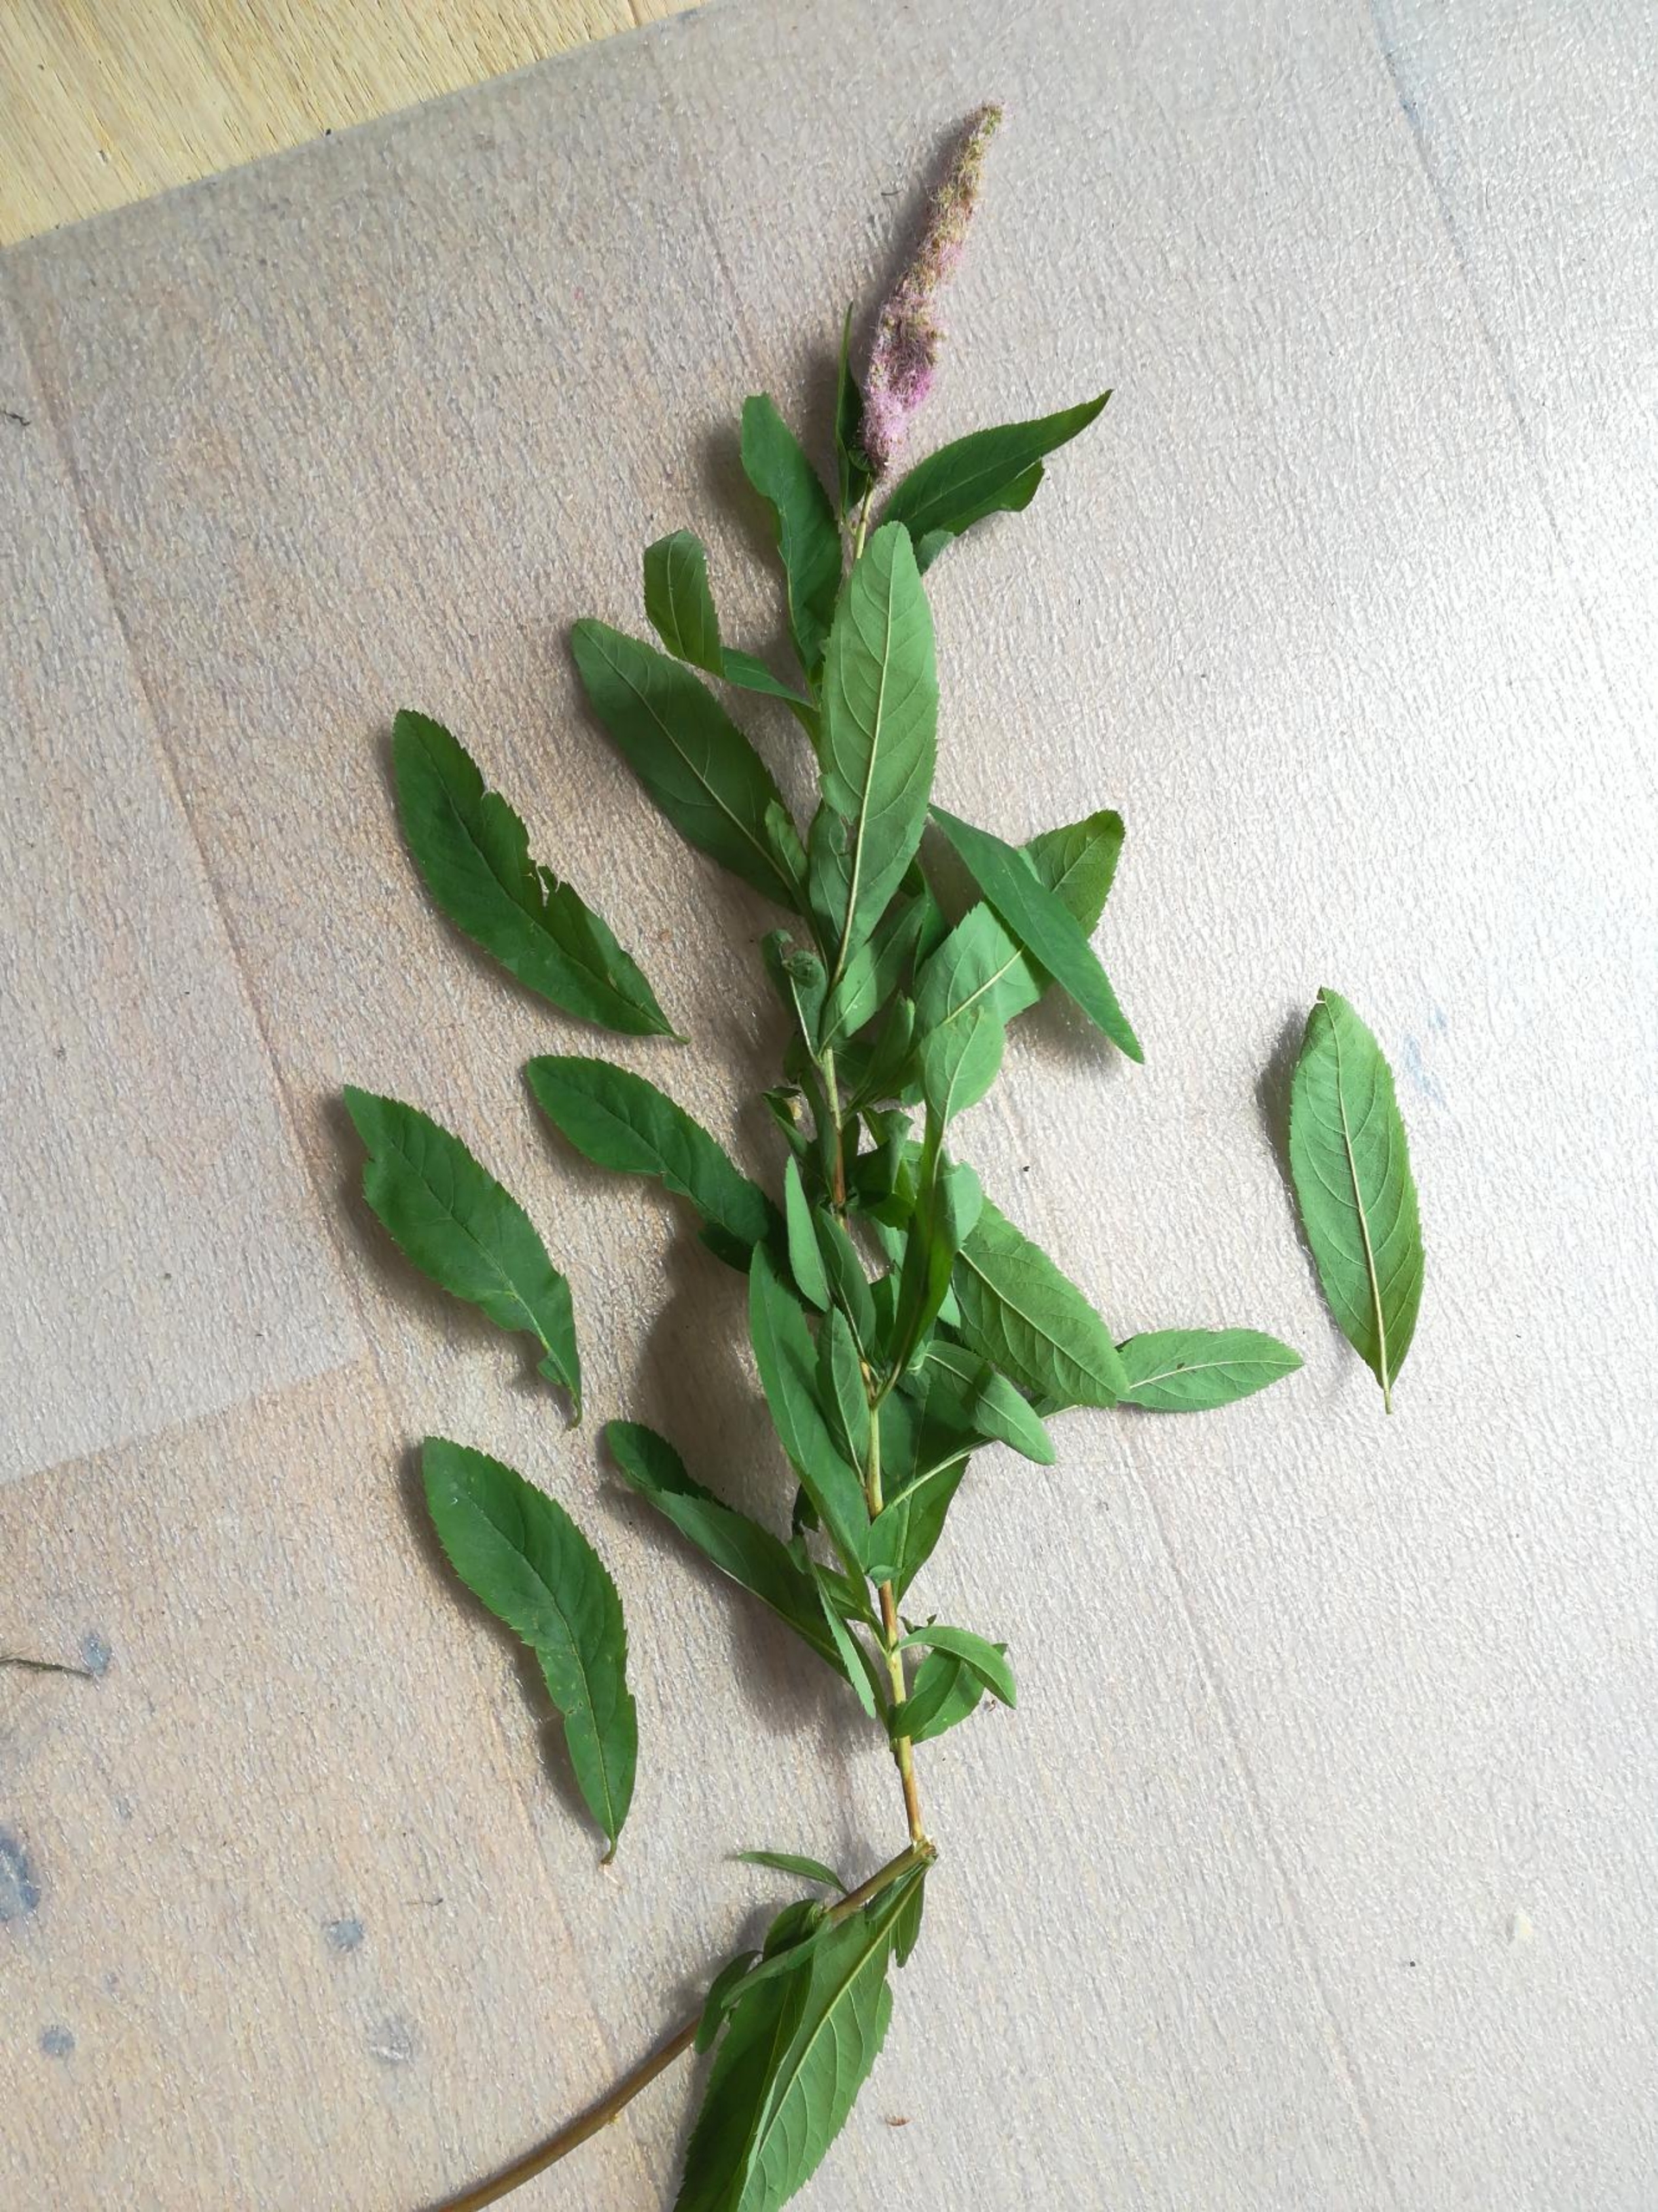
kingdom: Plantae
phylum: Tracheophyta
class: Magnoliopsida
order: Rosales
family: Rosaceae
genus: Spiraea
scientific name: Spiraea billardii
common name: Klase-spiræa
